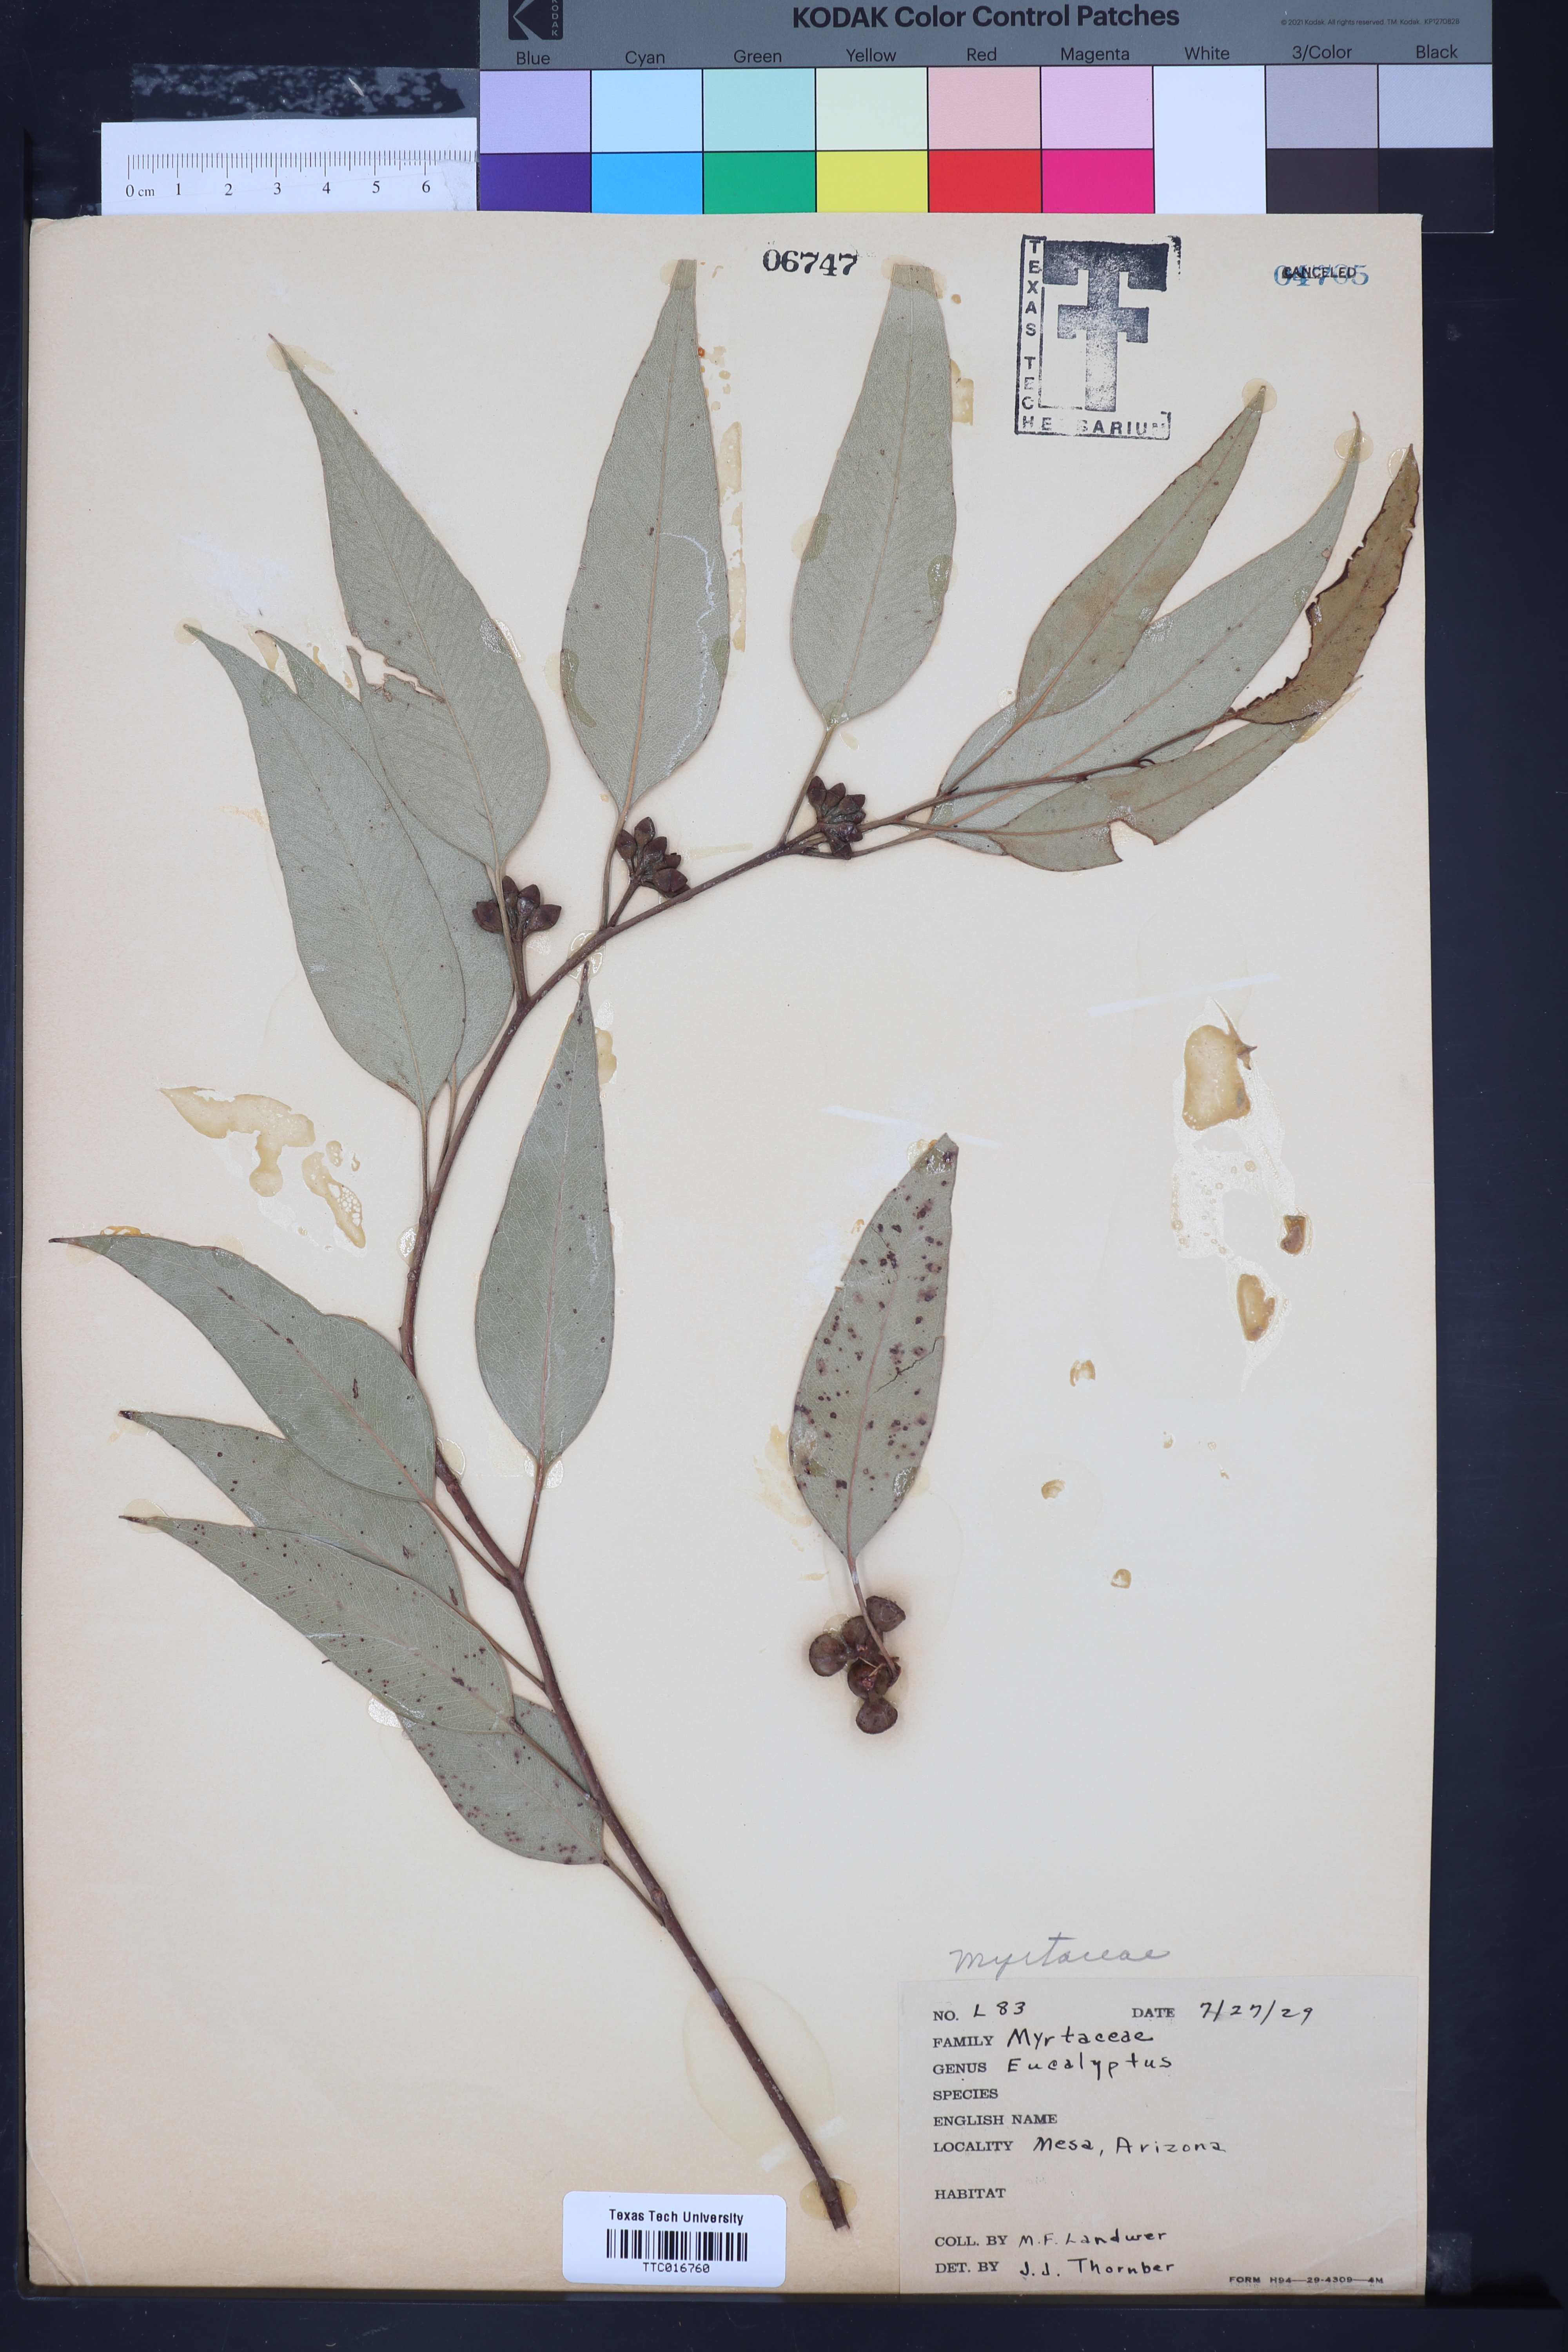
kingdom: Plantae
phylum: Tracheophyta
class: Magnoliopsida
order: Myrtales
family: Myrtaceae
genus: Eucalyptus
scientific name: Eucalyptus
